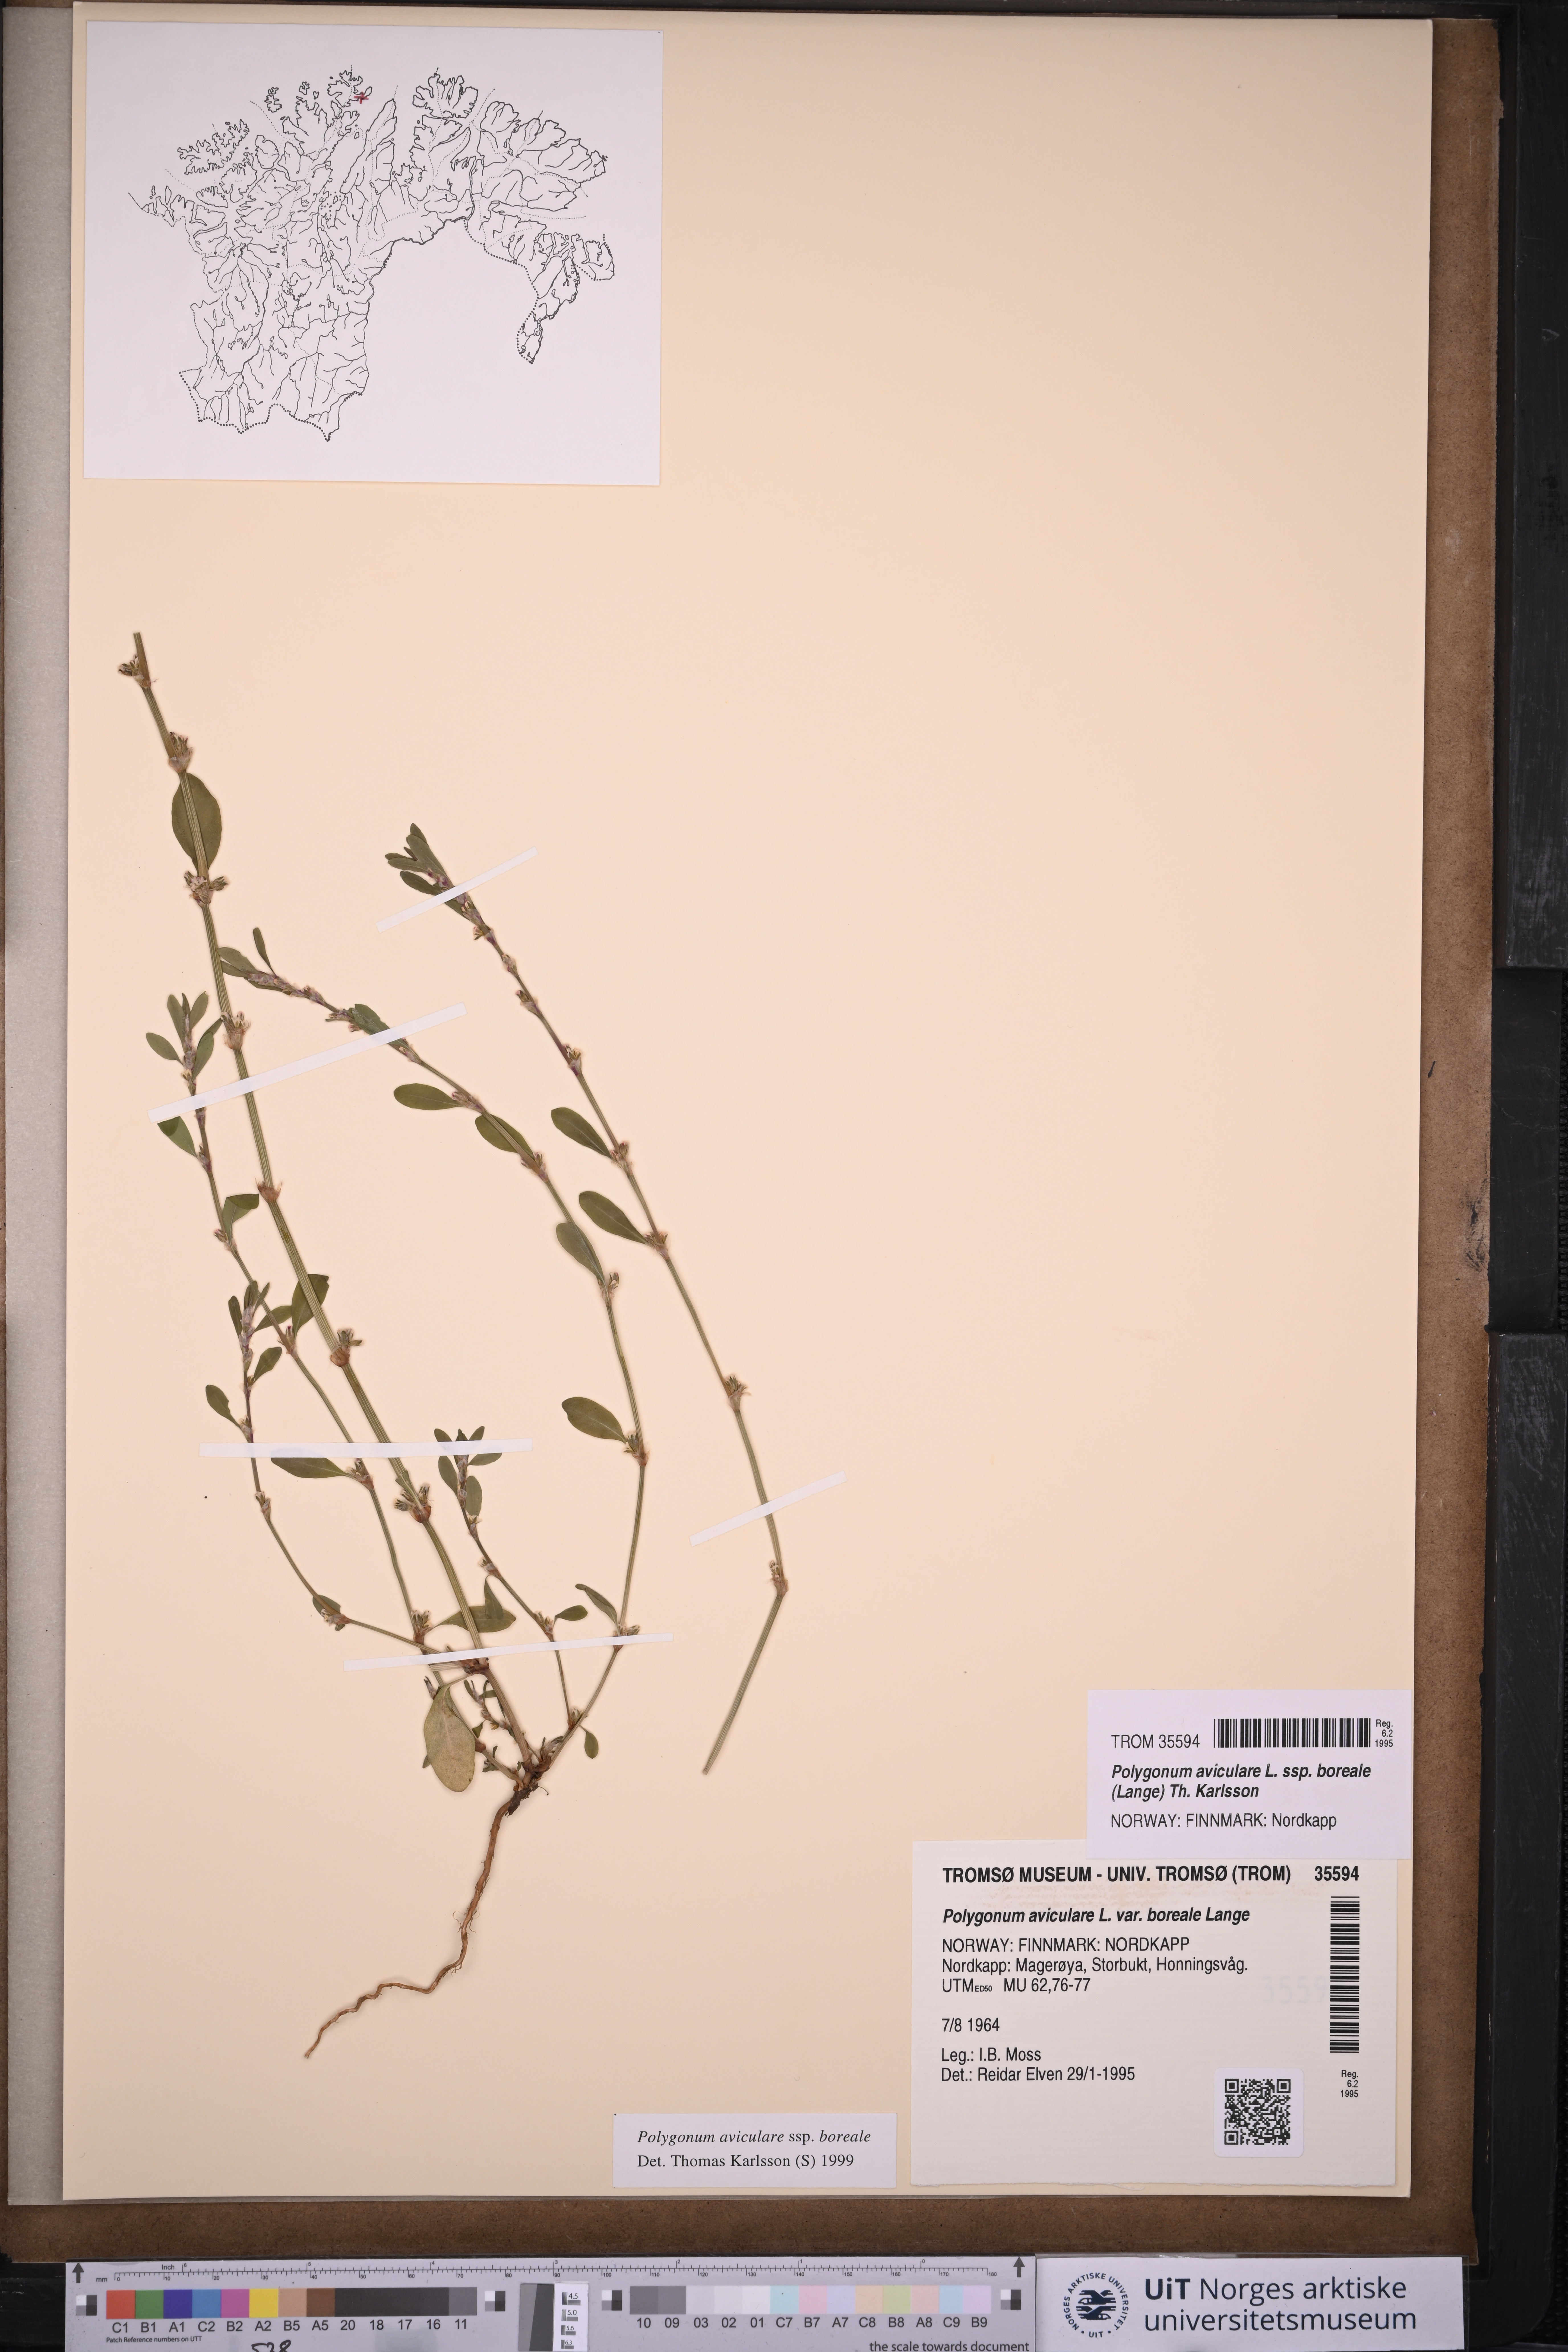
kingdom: Plantae
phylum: Tracheophyta
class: Magnoliopsida
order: Caryophyllales
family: Polygonaceae
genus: Polygonum
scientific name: Polygonum boreale
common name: Northern knotgrass
